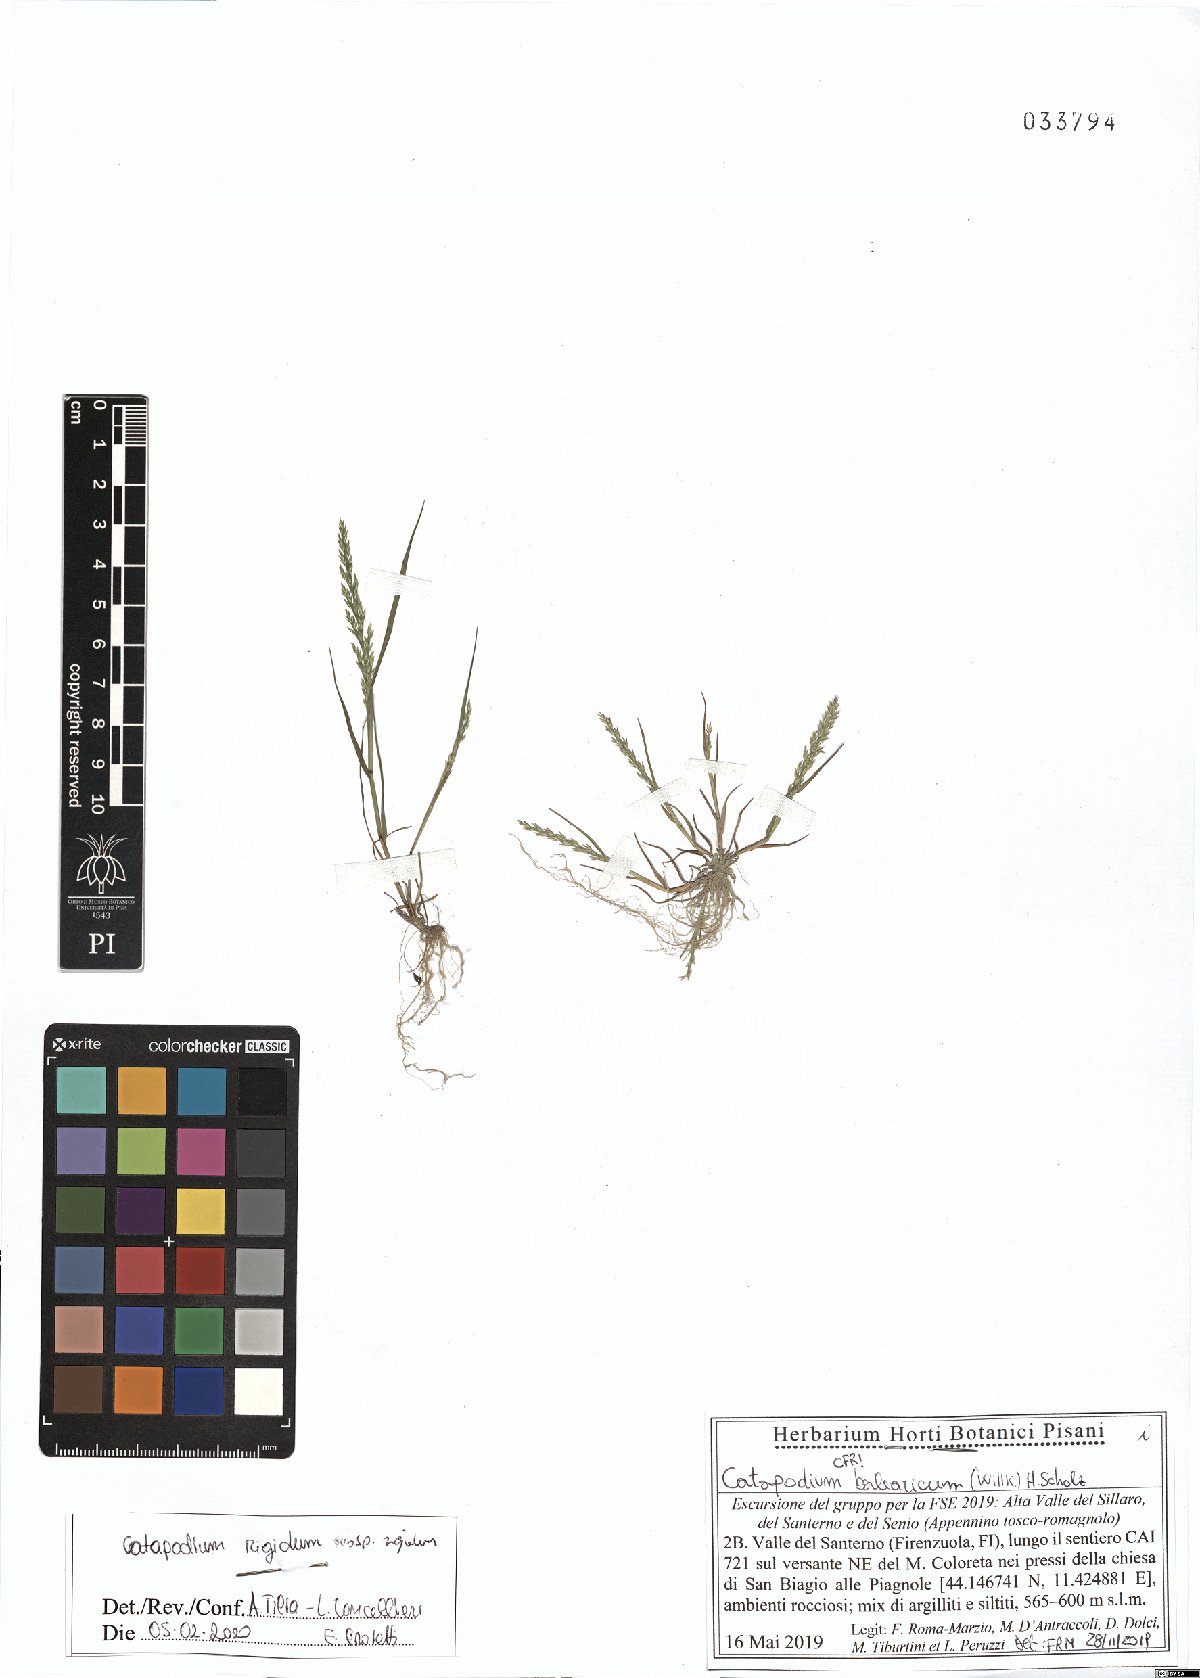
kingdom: Plantae
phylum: Tracheophyta
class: Liliopsida
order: Poales
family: Poaceae
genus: Catapodium
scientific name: Catapodium rigidum
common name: Fern-grass
